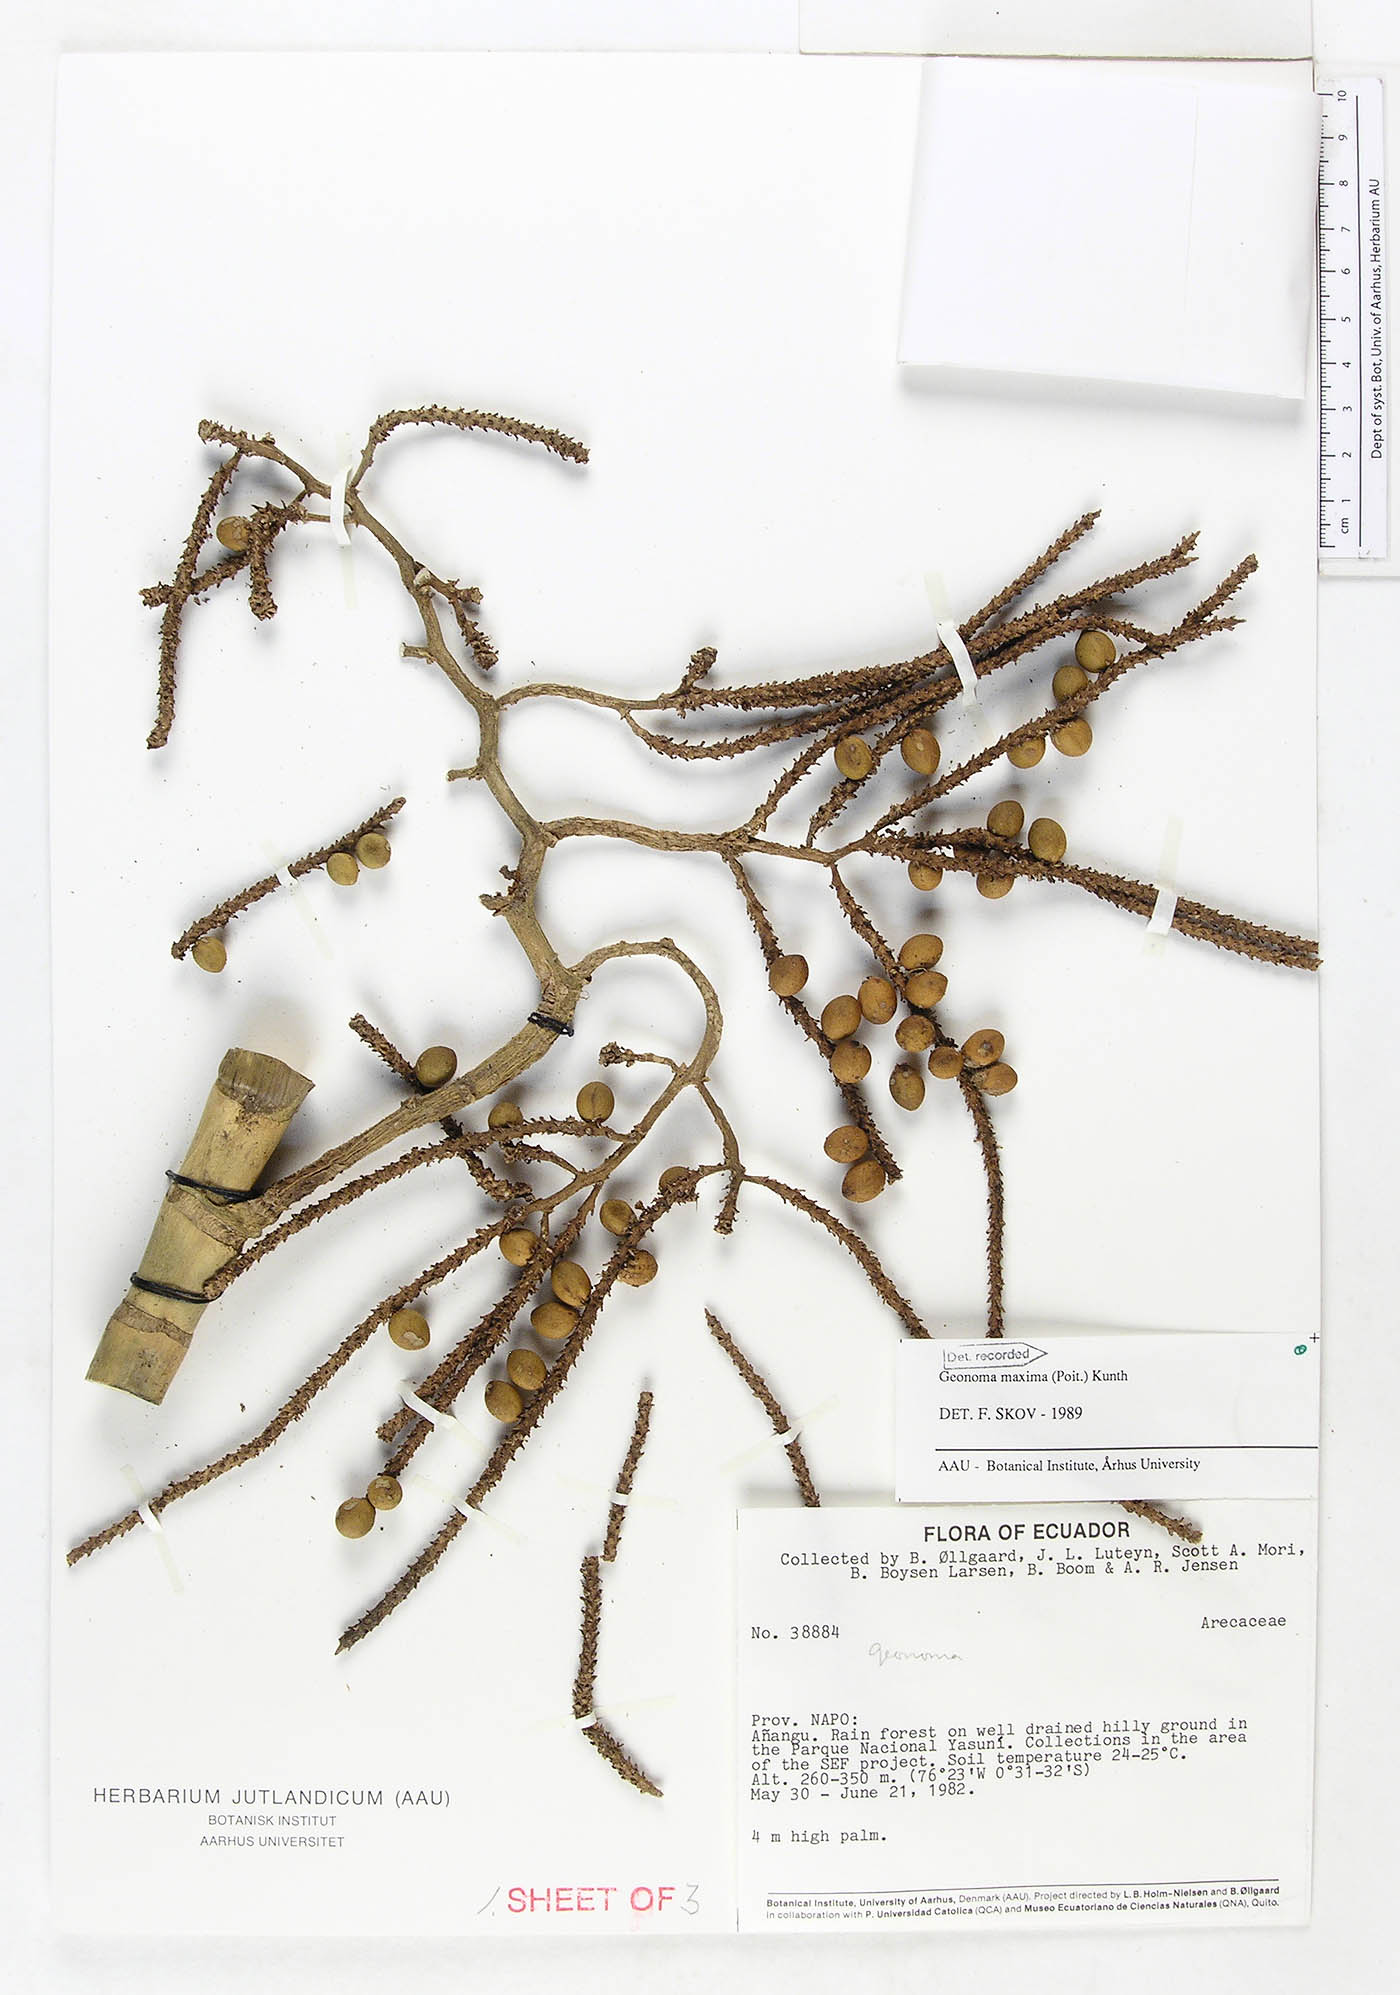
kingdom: Plantae
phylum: Tracheophyta
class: Liliopsida
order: Arecales
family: Arecaceae
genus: Geonoma
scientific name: Geonoma maxima
